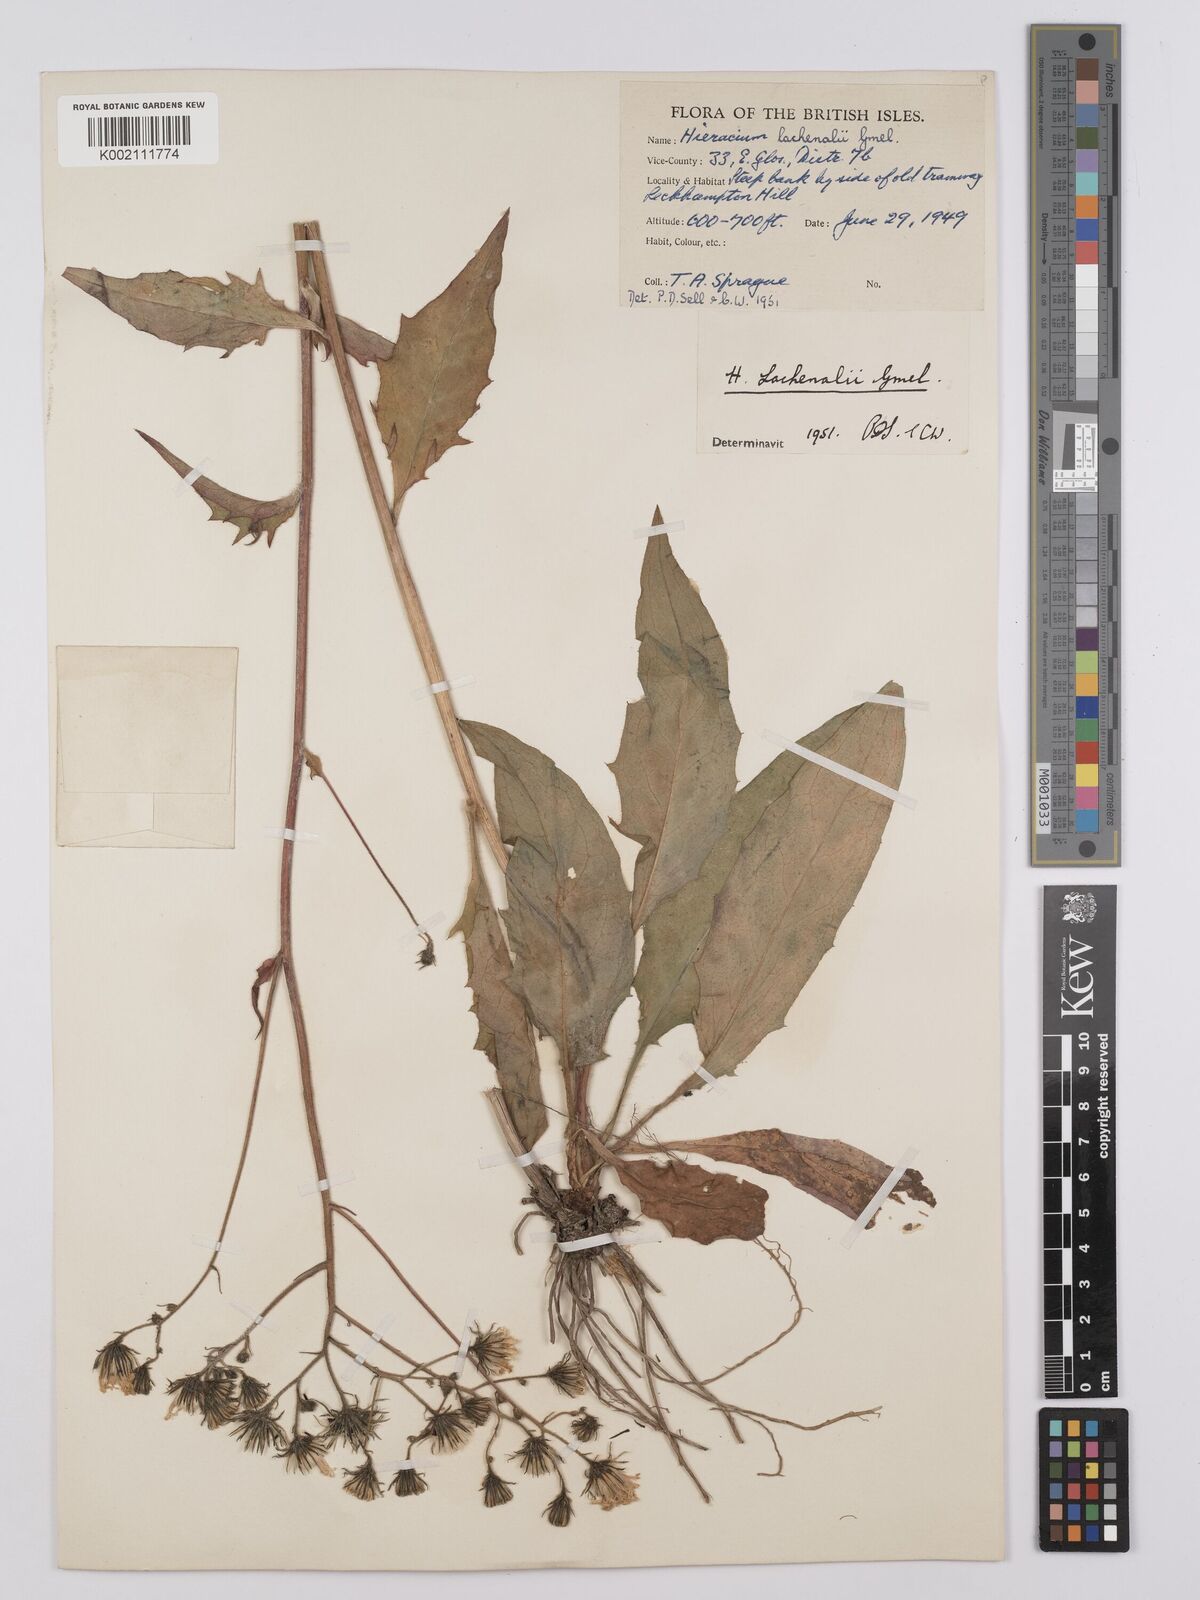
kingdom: Plantae
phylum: Tracheophyta
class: Magnoliopsida
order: Asterales
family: Asteraceae
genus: Hieracium
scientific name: Hieracium lachenalii
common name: Common hawkweed
